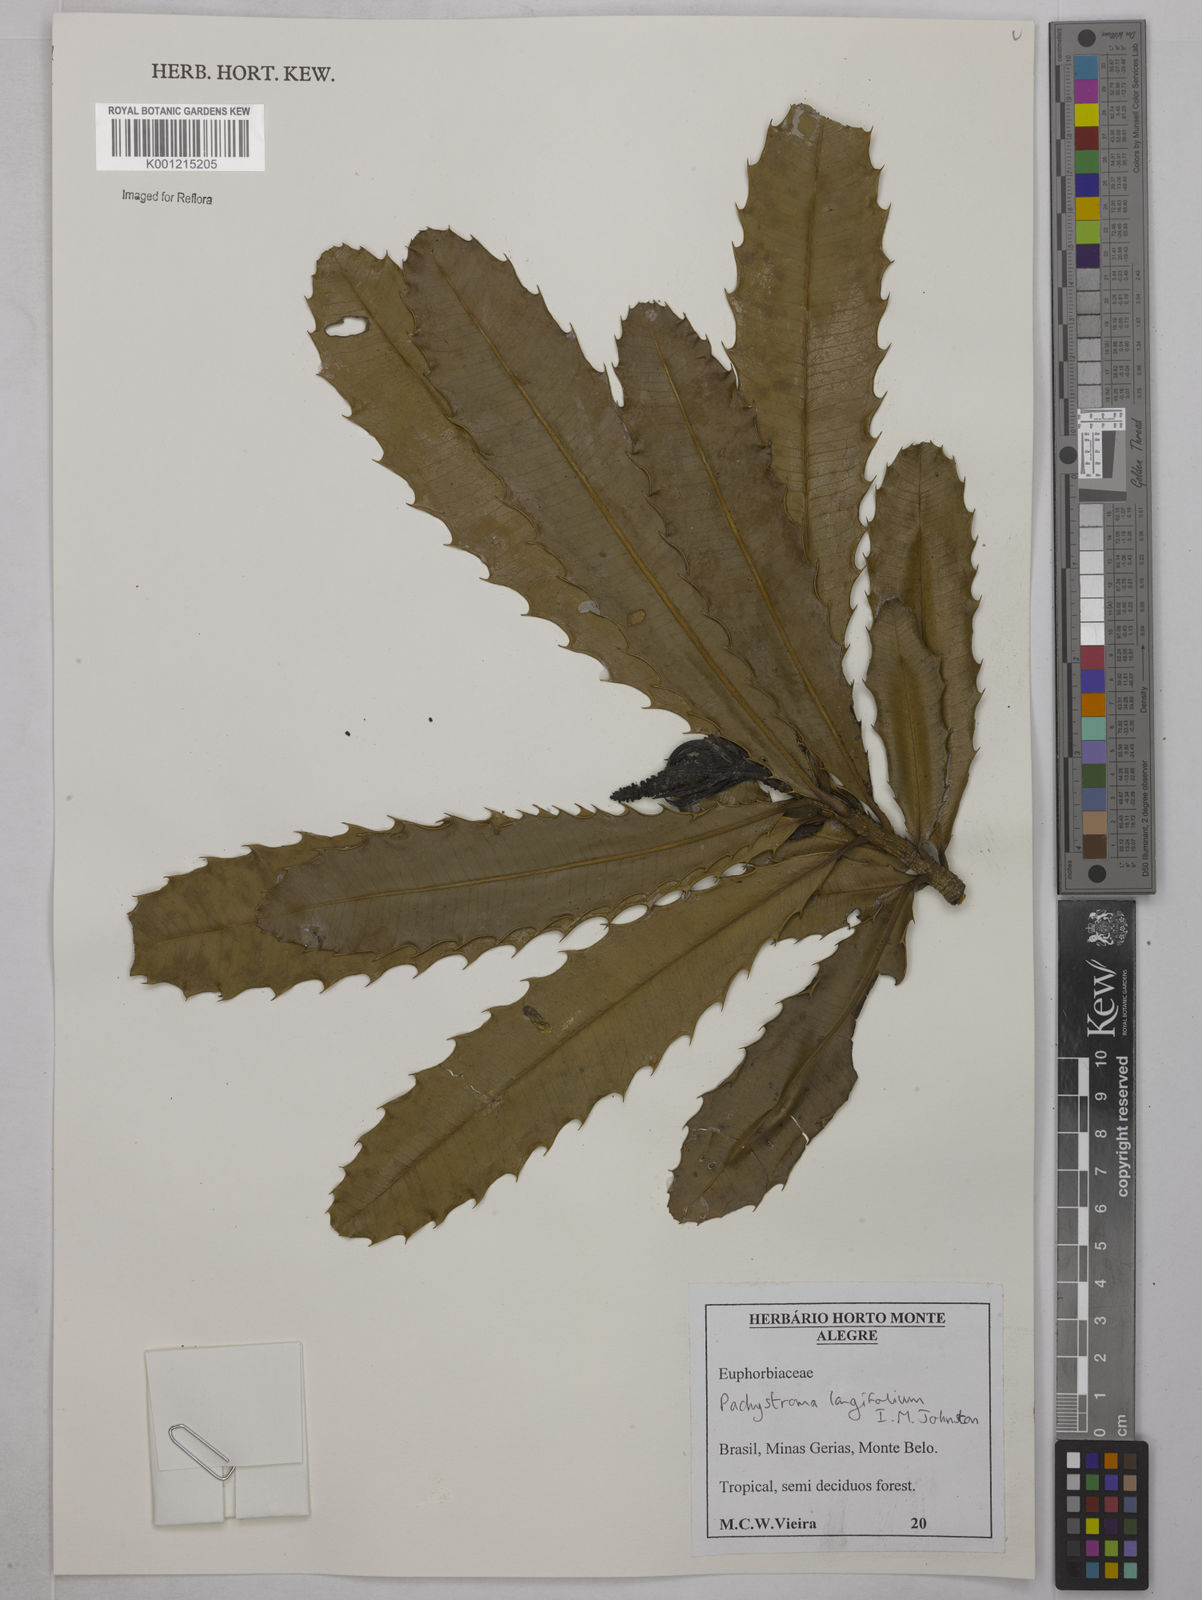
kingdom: Plantae
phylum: Tracheophyta
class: Magnoliopsida
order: Malpighiales
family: Euphorbiaceae
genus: Pachystroma
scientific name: Pachystroma longifolium
